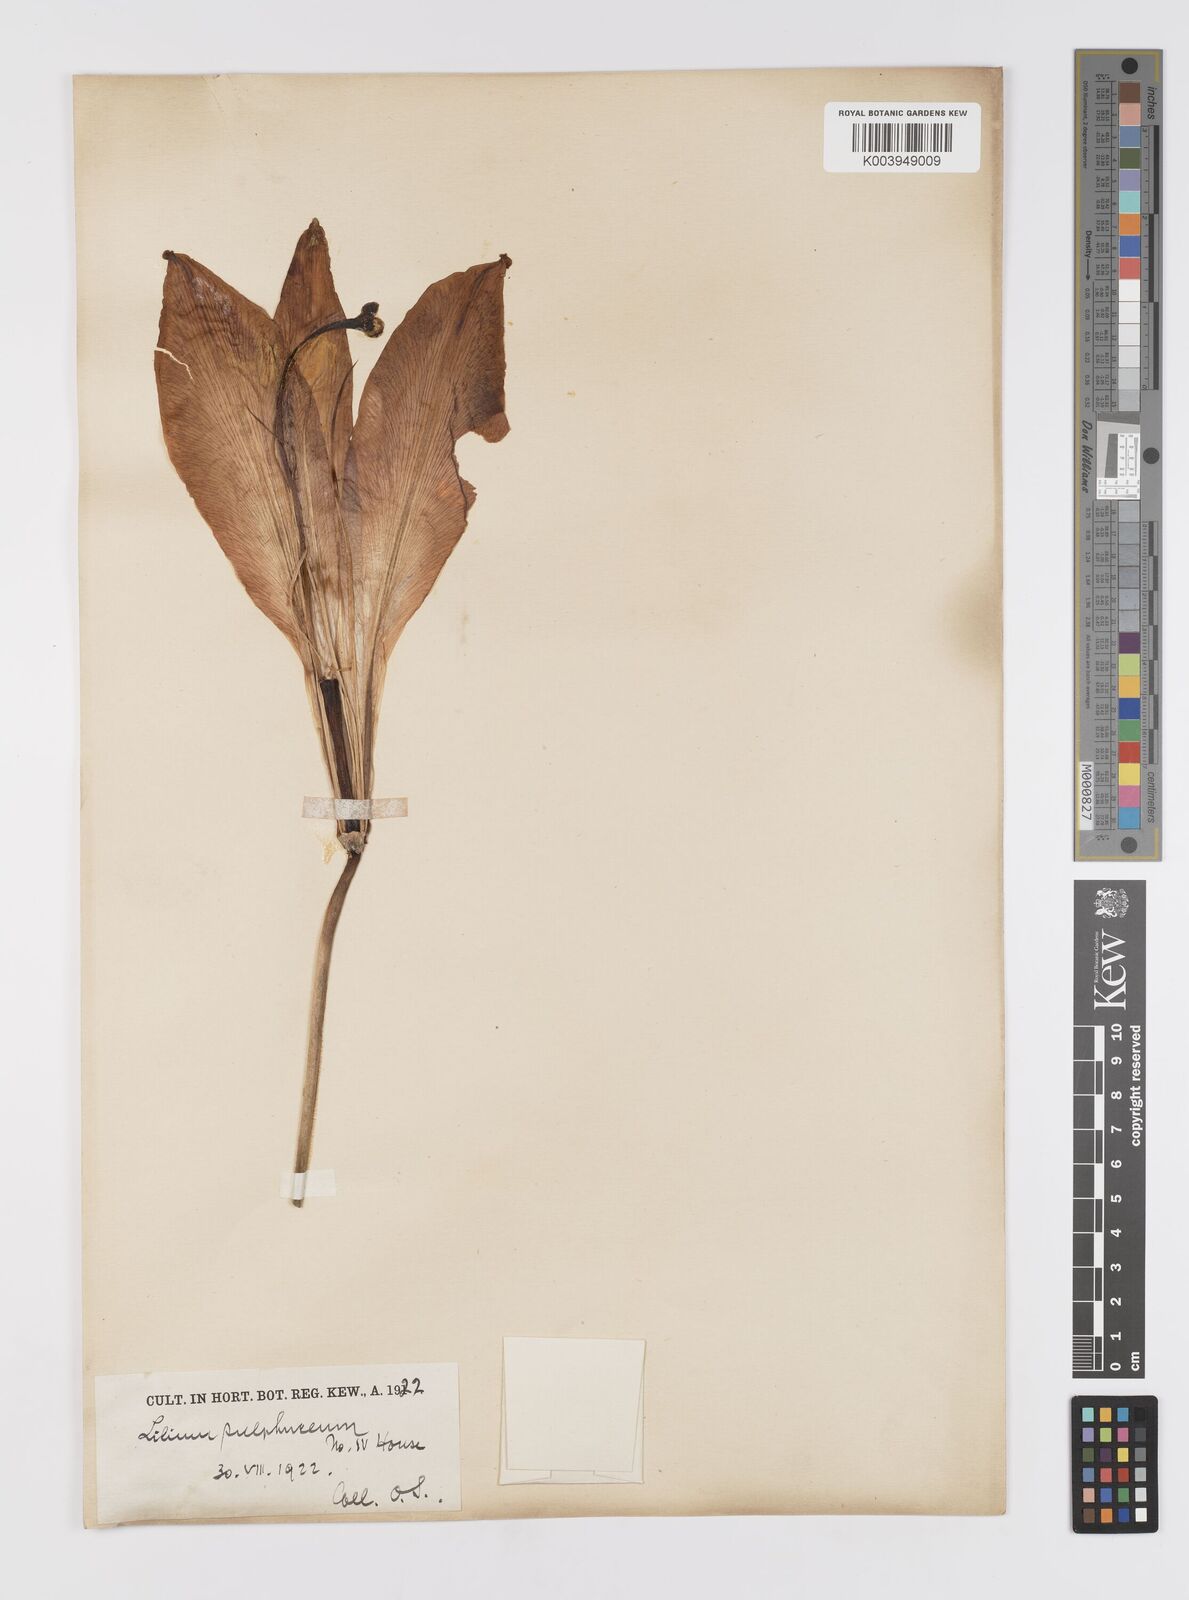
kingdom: Plantae
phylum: Tracheophyta
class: Liliopsida
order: Liliales
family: Liliaceae
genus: Lilium
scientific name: Lilium
